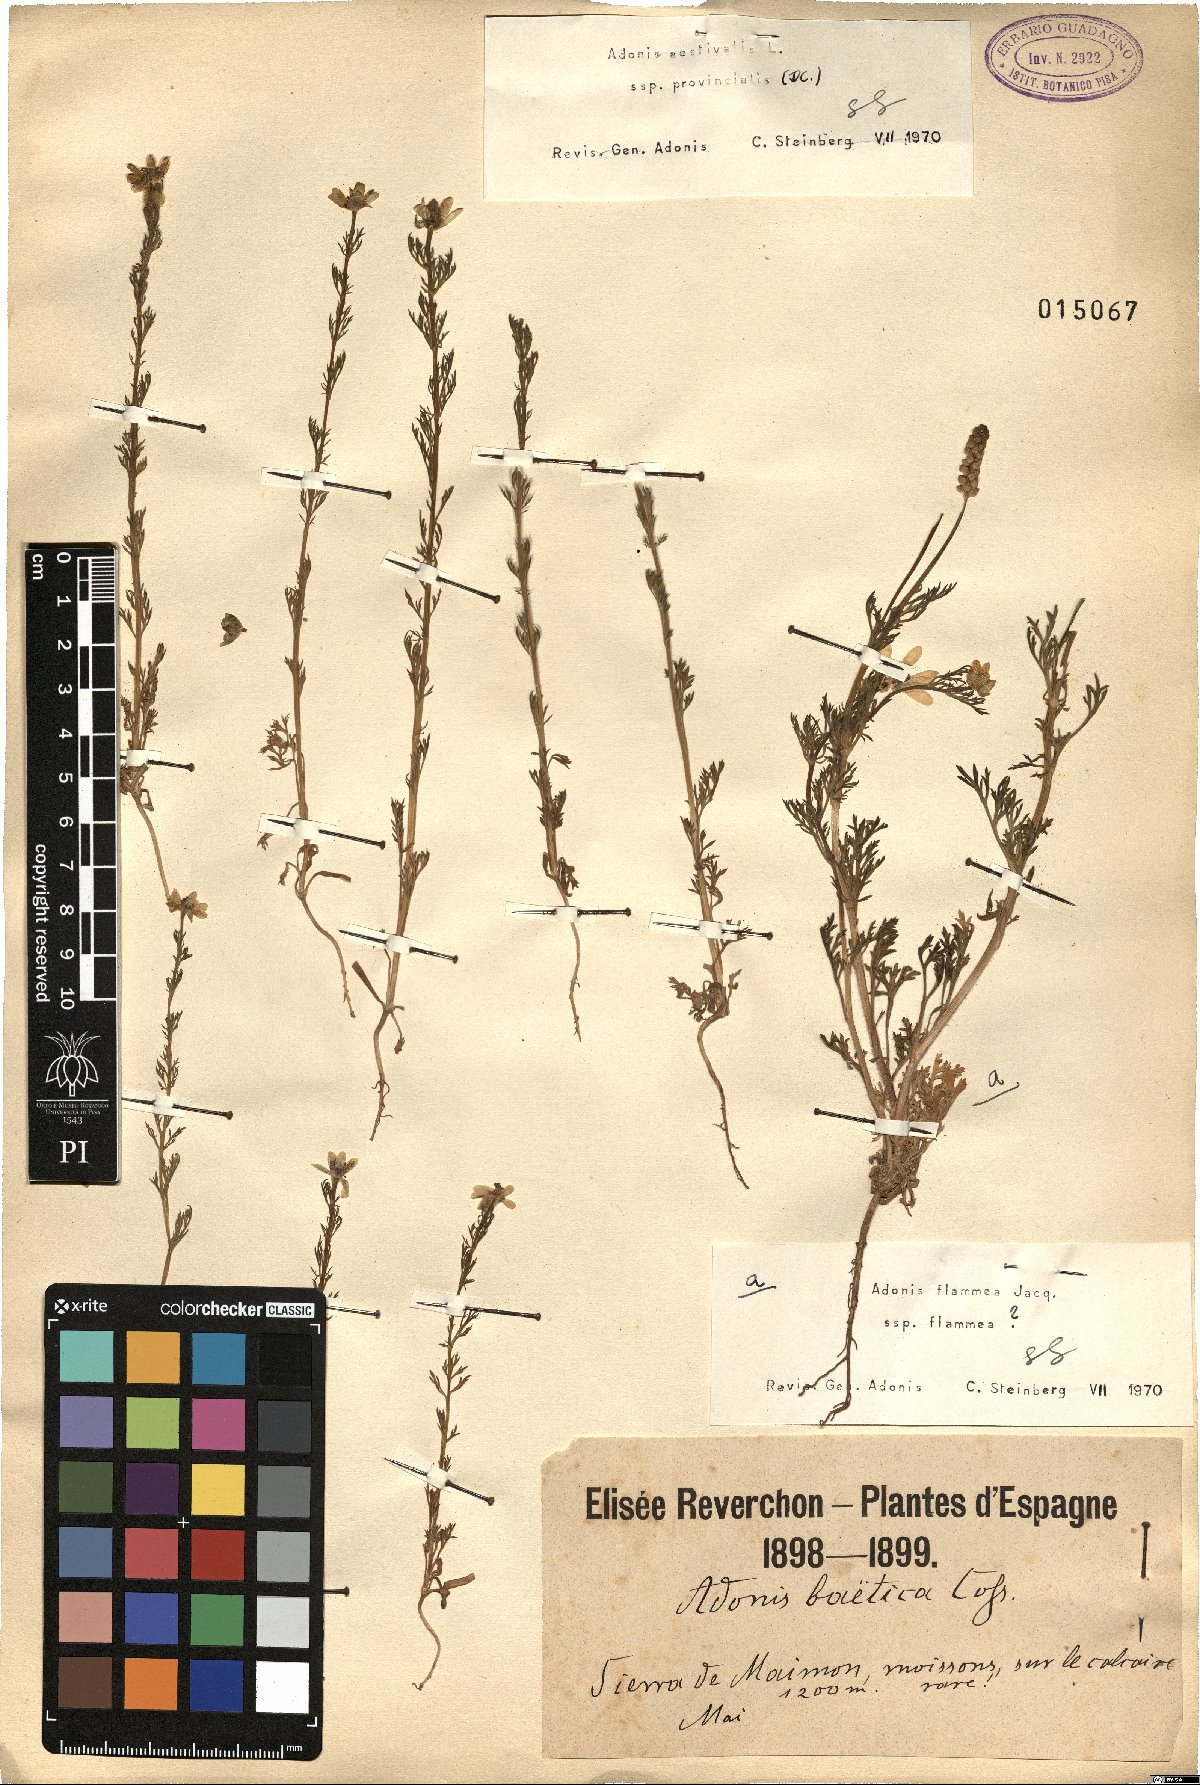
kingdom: Plantae
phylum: Tracheophyta
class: Magnoliopsida
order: Ranunculales
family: Ranunculaceae
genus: Adonis
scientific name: Adonis aestivalis
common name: Summer pheasant's-eye
